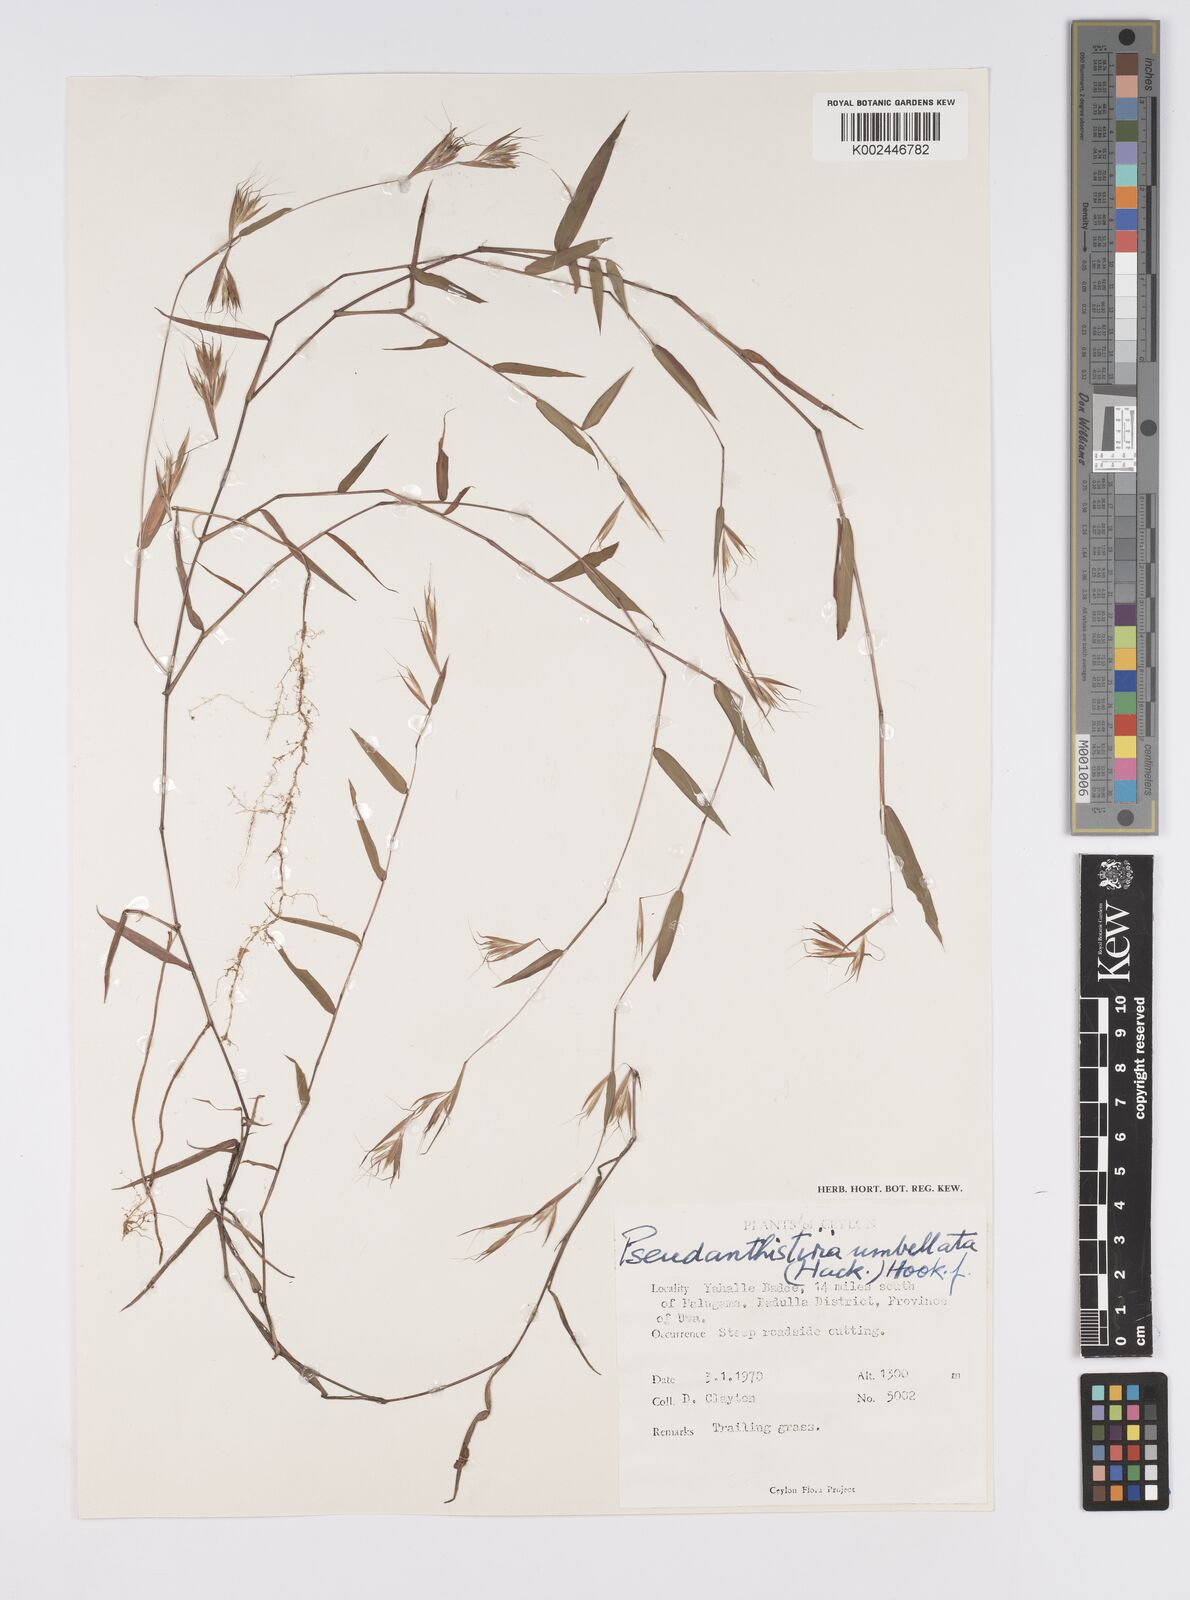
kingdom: Plantae
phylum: Tracheophyta
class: Liliopsida
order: Poales
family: Poaceae
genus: Pseudanthistiria
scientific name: Pseudanthistiria umbellata
